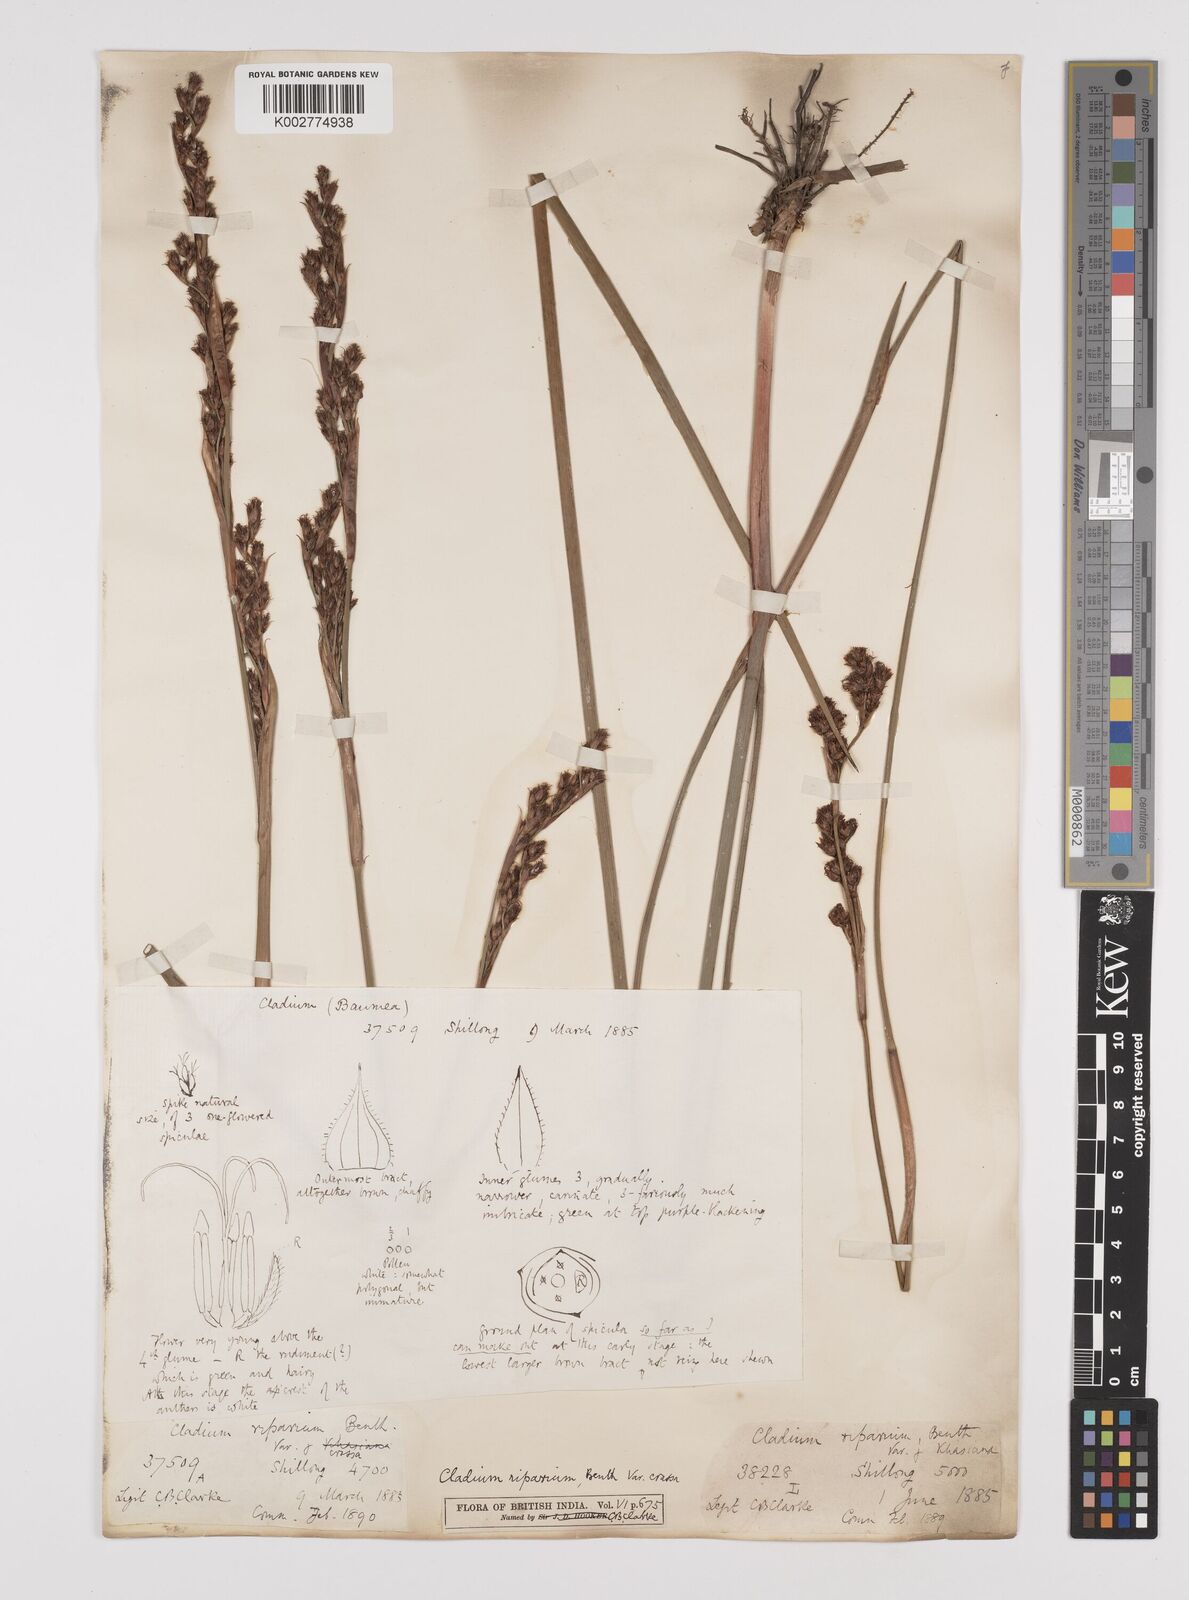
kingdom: Plantae
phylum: Tracheophyta
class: Liliopsida
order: Poales
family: Cyperaceae
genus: Machaerina
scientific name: Machaerina rubiginosa
